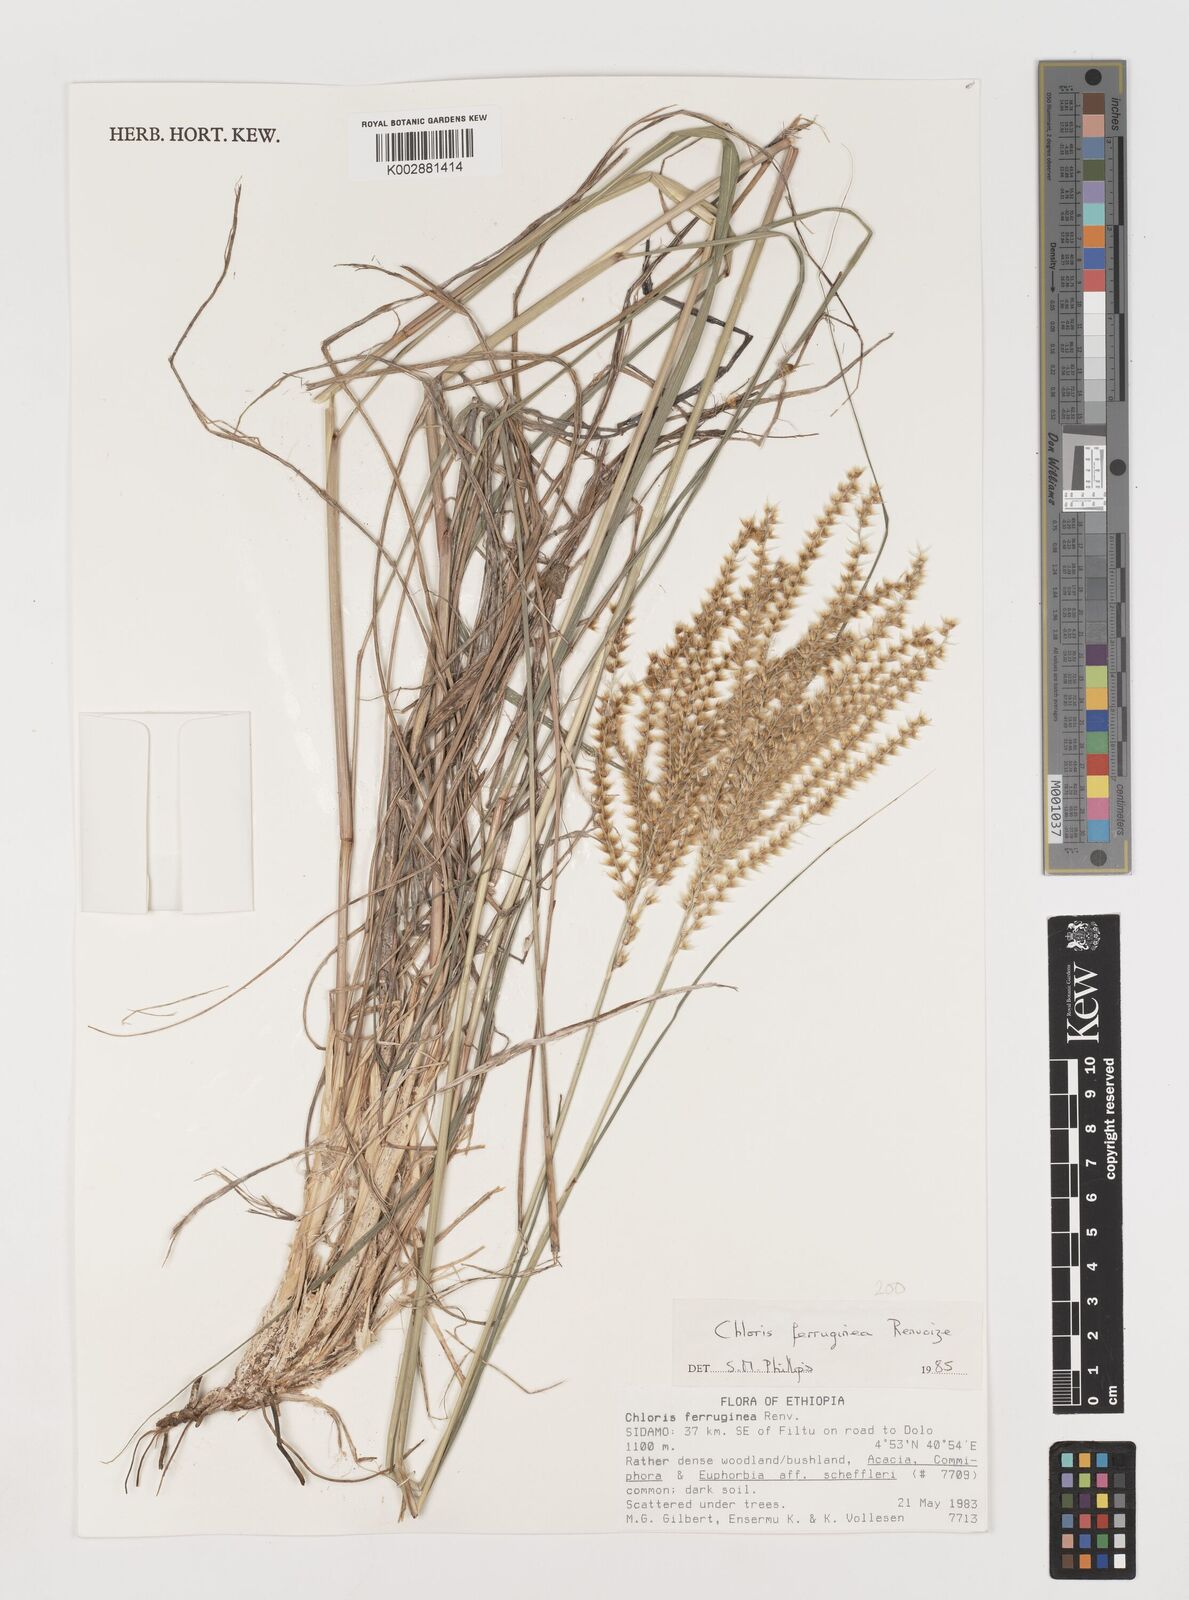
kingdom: Plantae
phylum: Tracheophyta
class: Liliopsida
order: Poales
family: Poaceae
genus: Tetrapogon
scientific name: Tetrapogon ferrugineus
